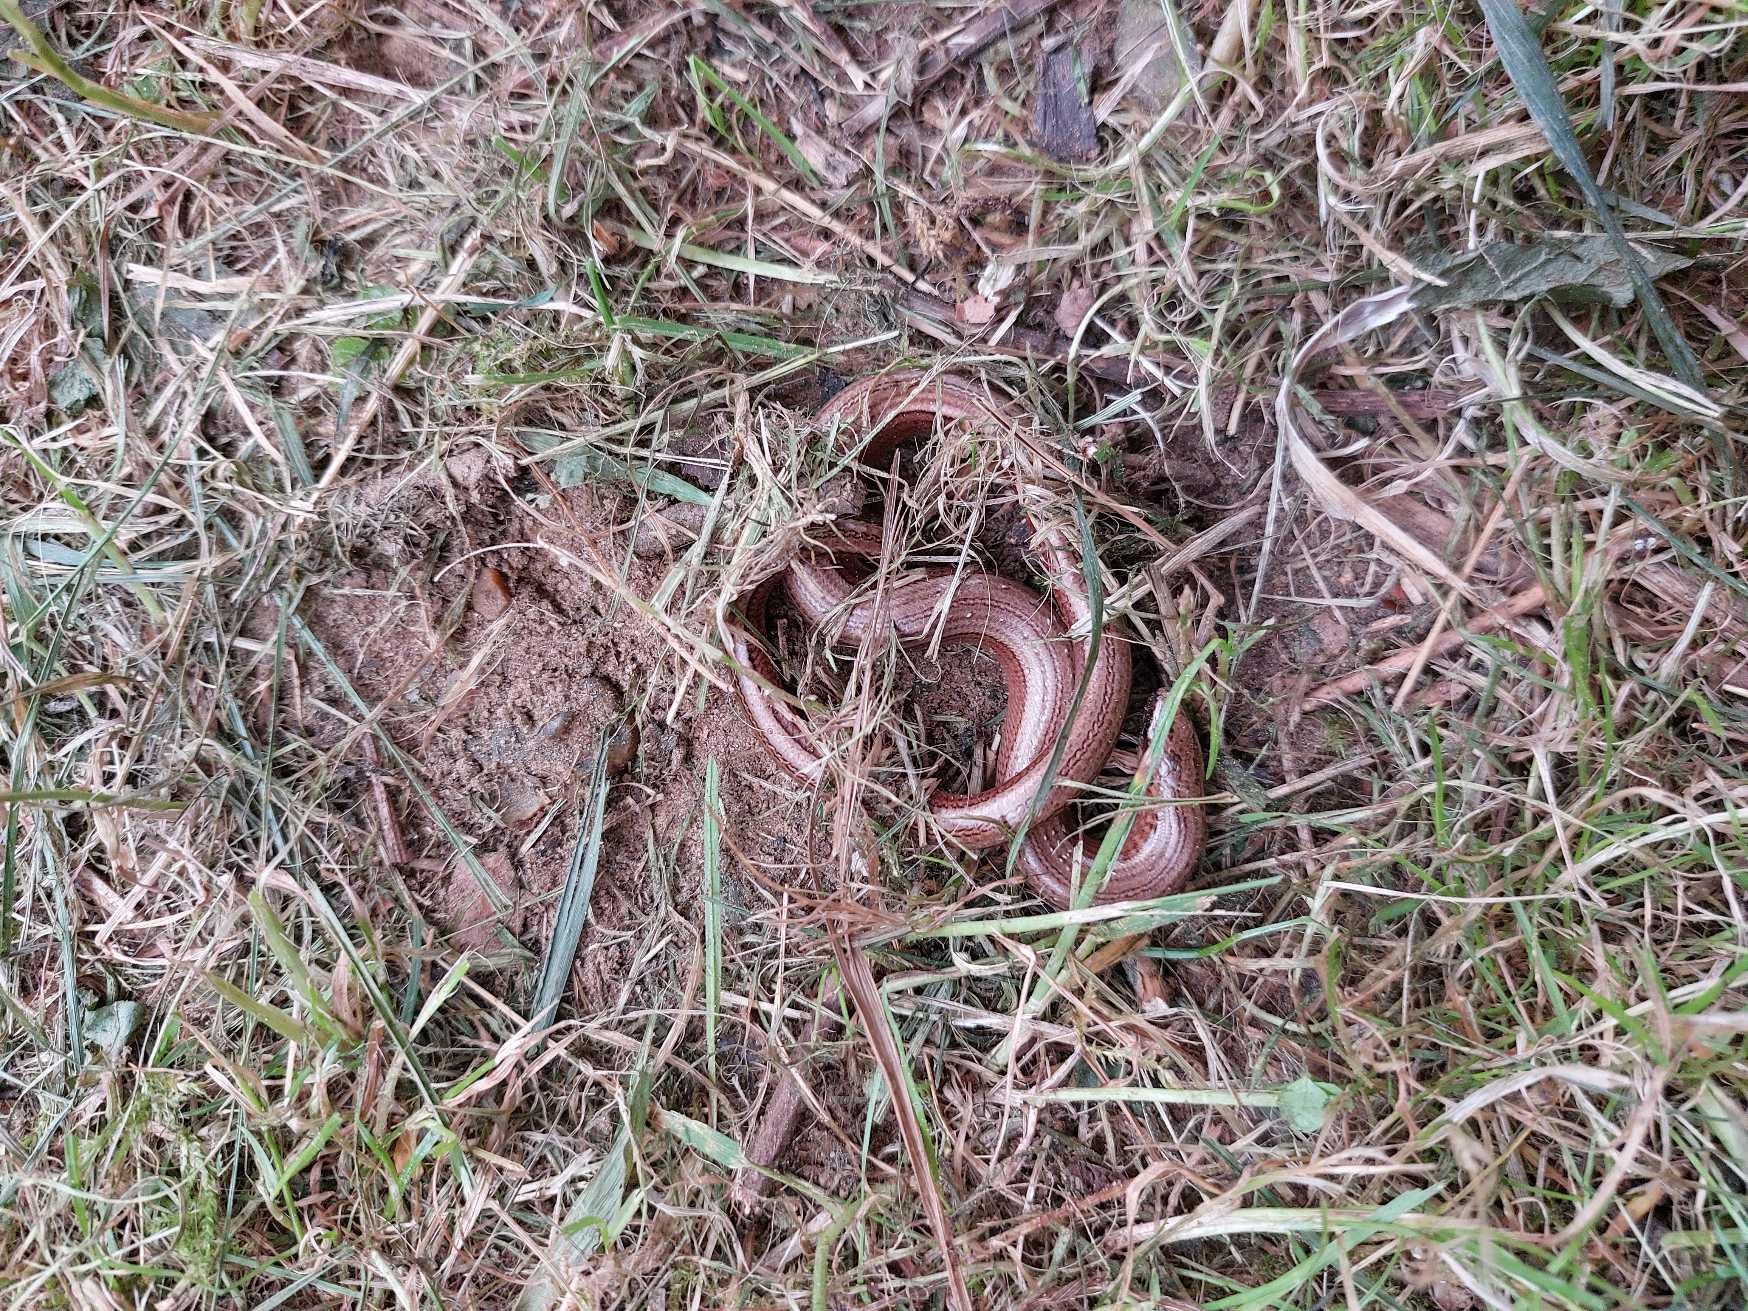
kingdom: Animalia
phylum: Chordata
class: Squamata
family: Anguidae
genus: Anguis
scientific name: Anguis fragilis
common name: Stålorm
